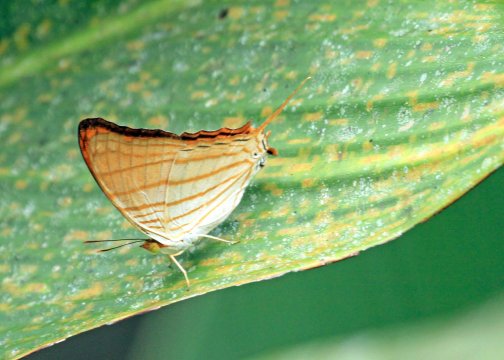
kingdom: Animalia
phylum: Arthropoda
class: Insecta
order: Lepidoptera
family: Nymphalidae
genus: Marpesia
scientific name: Marpesia berania
